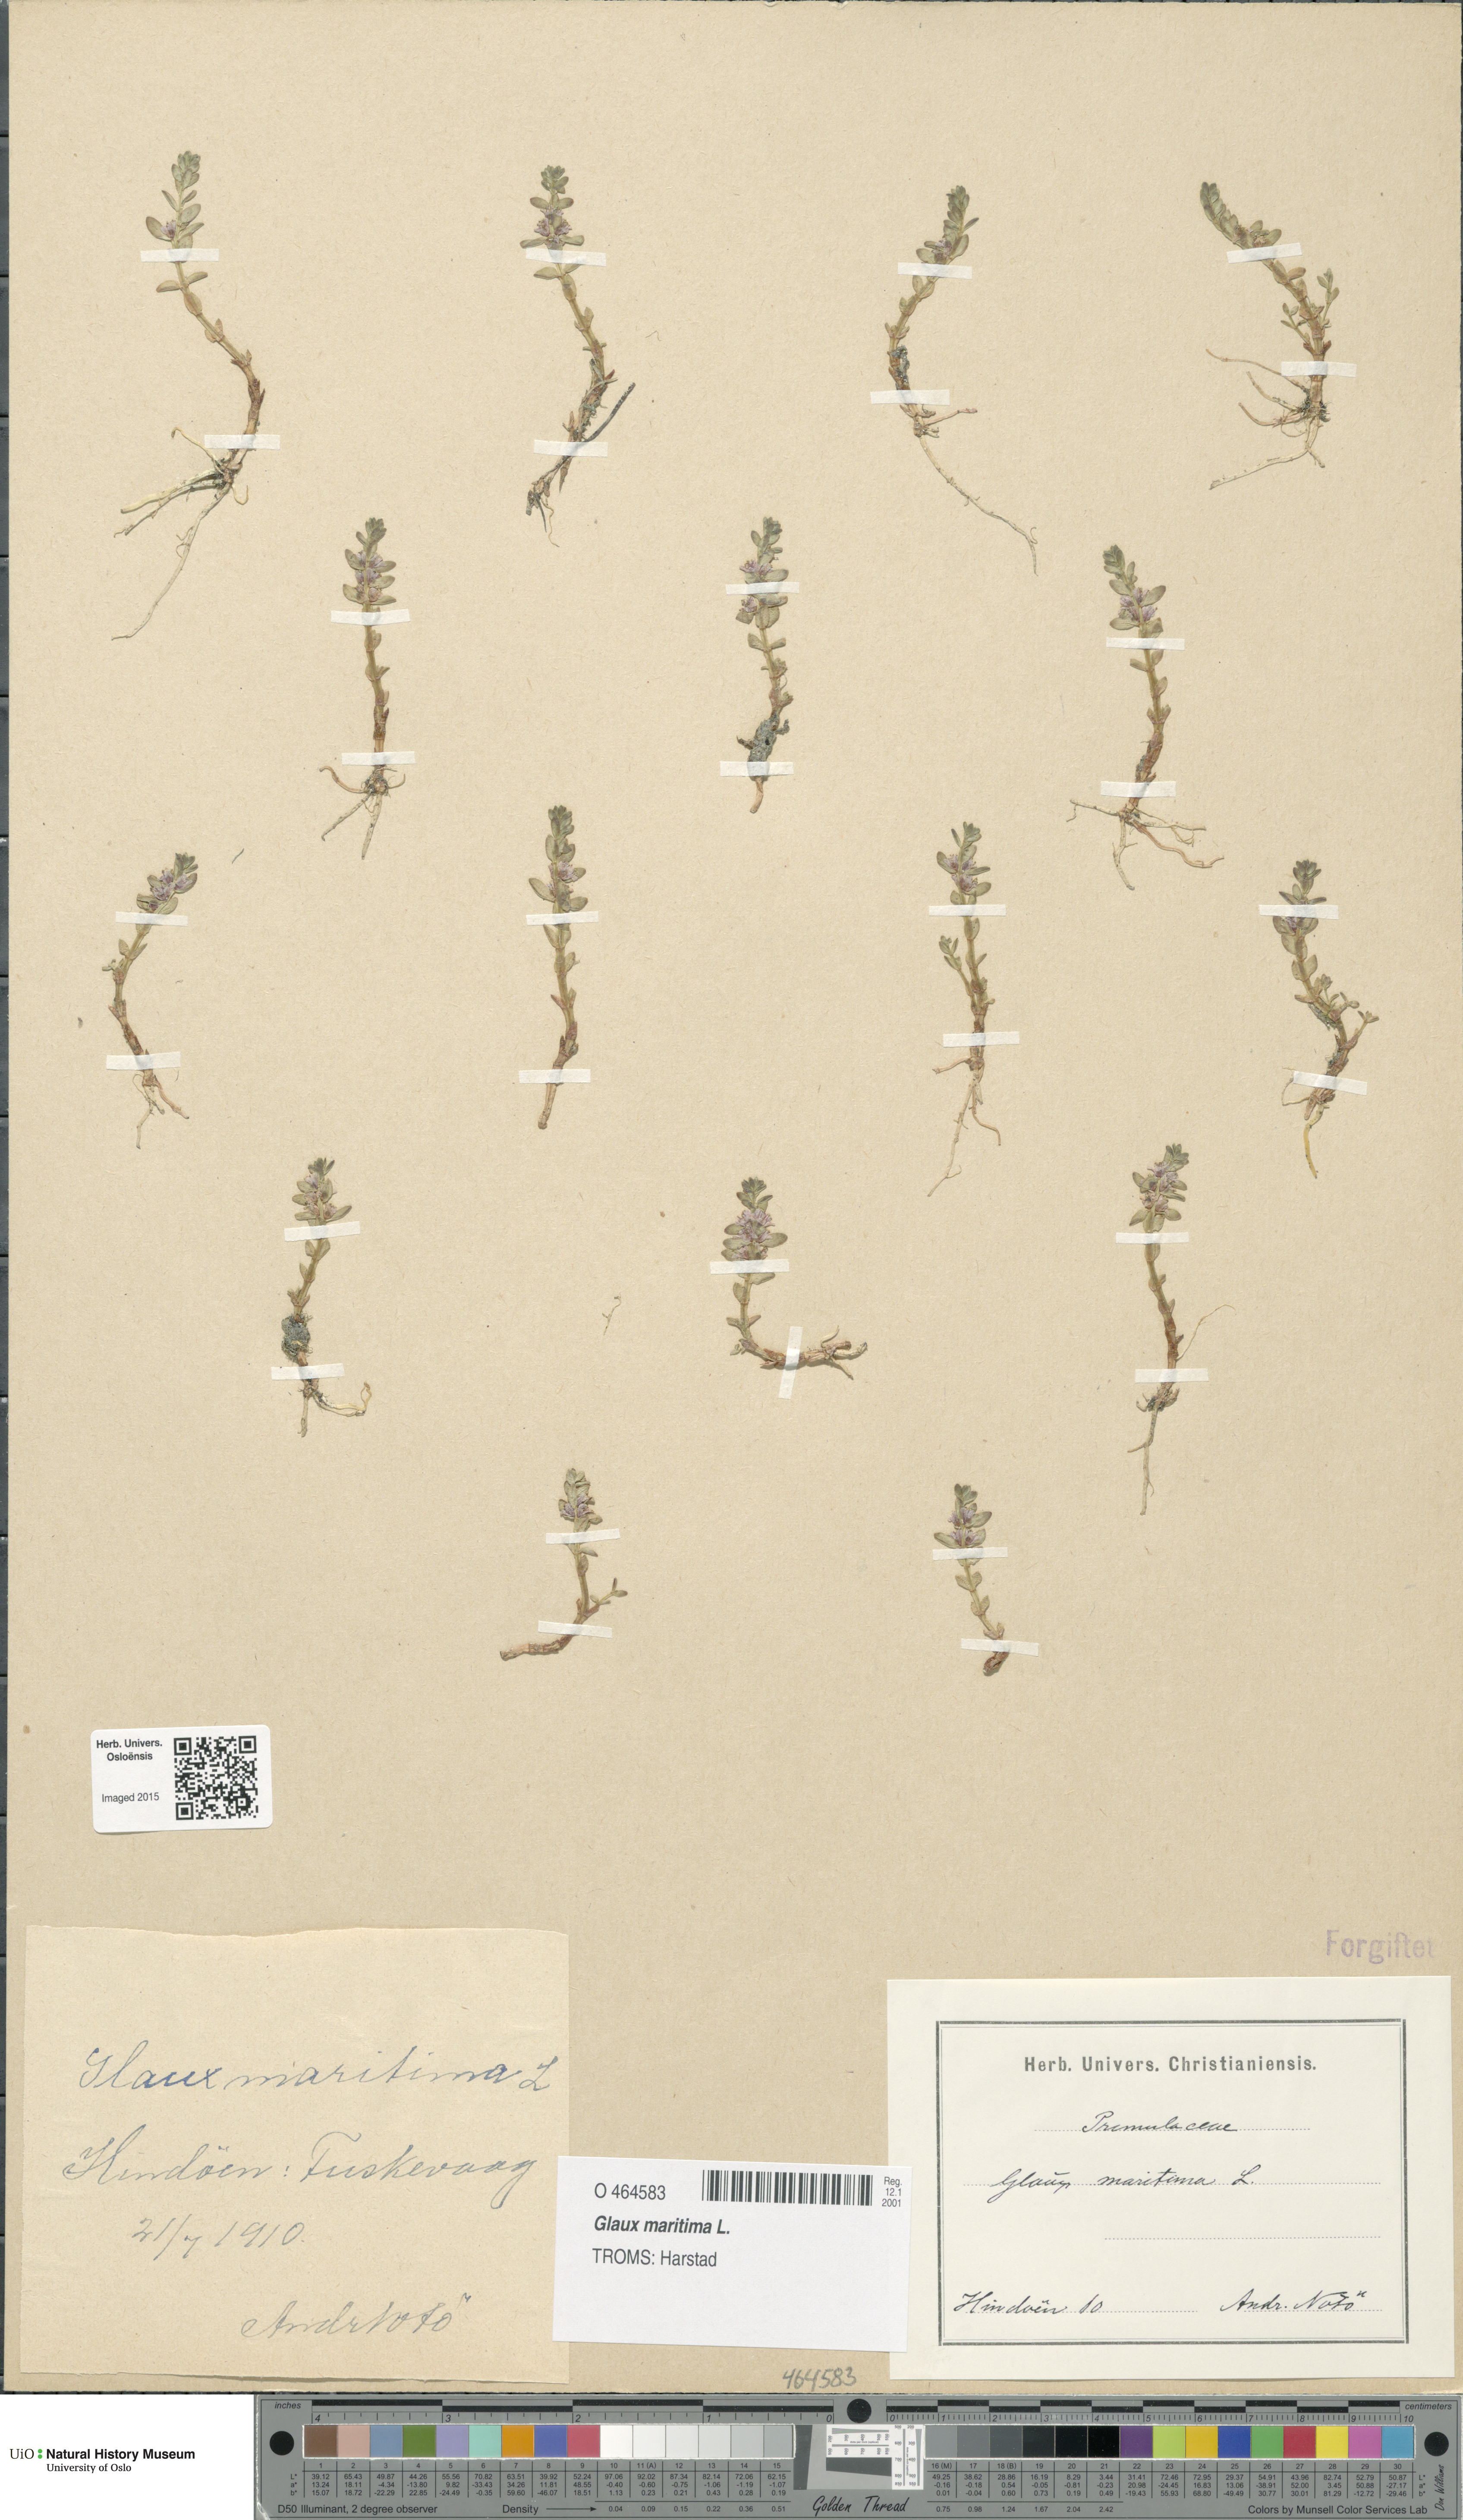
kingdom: Plantae
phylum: Tracheophyta
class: Magnoliopsida
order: Ericales
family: Primulaceae
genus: Lysimachia
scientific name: Lysimachia maritima
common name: Sea milkwort
